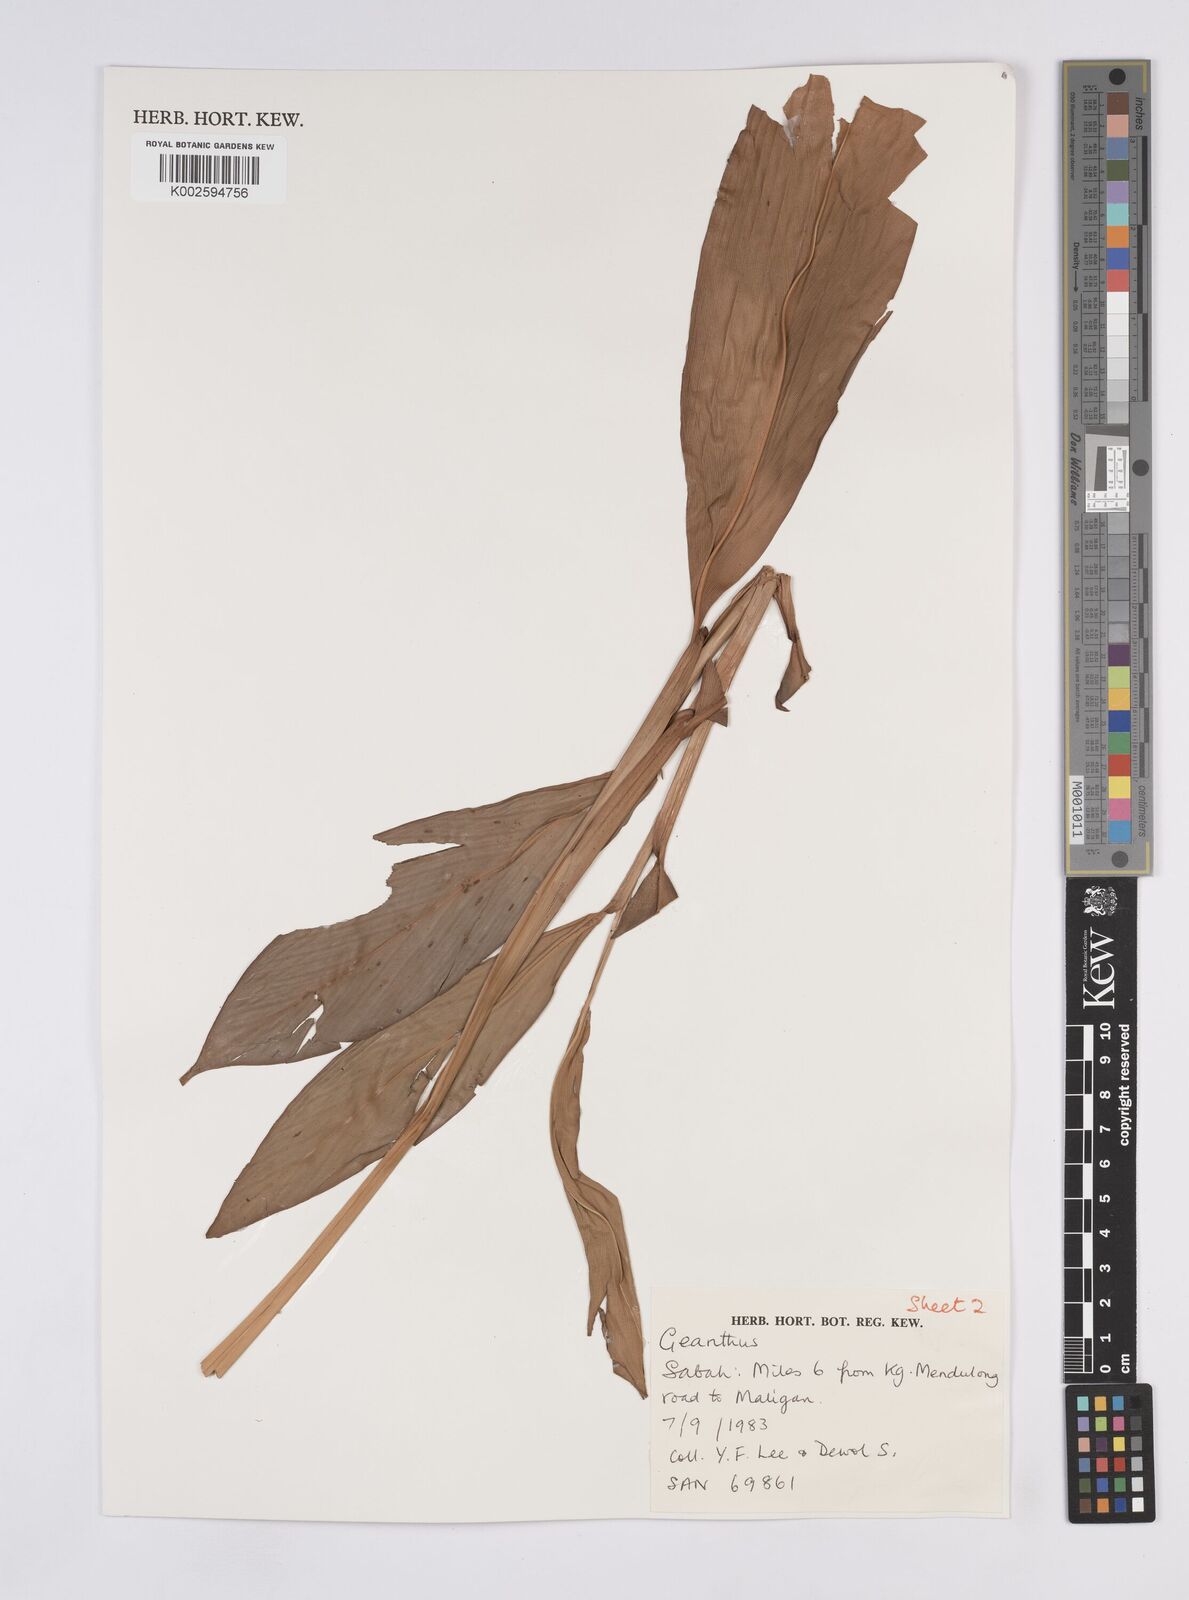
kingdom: Plantae
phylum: Tracheophyta
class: Liliopsida
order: Zingiberales
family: Zingiberaceae
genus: Sulettaria
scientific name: Sulettaria rubida
